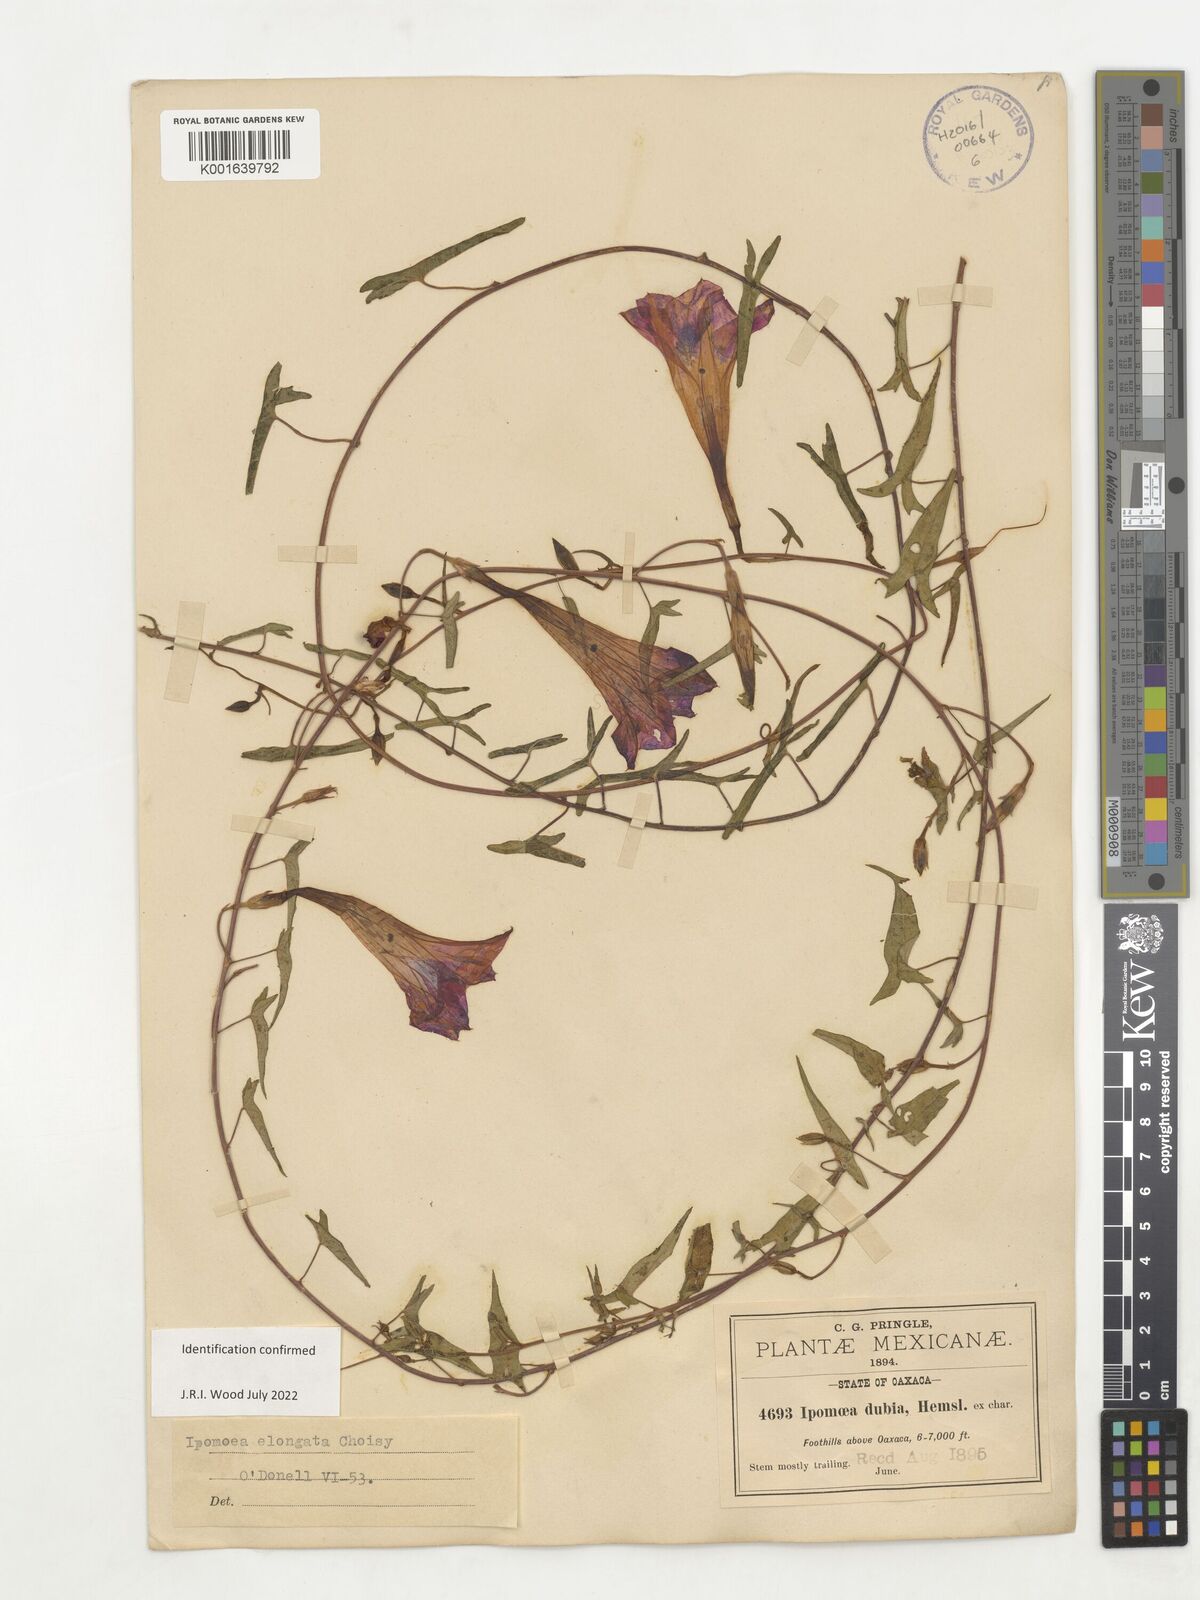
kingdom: Plantae
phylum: Tracheophyta
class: Magnoliopsida
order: Solanales
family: Convolvulaceae
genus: Ipomoea
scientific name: Ipomoea elongata
